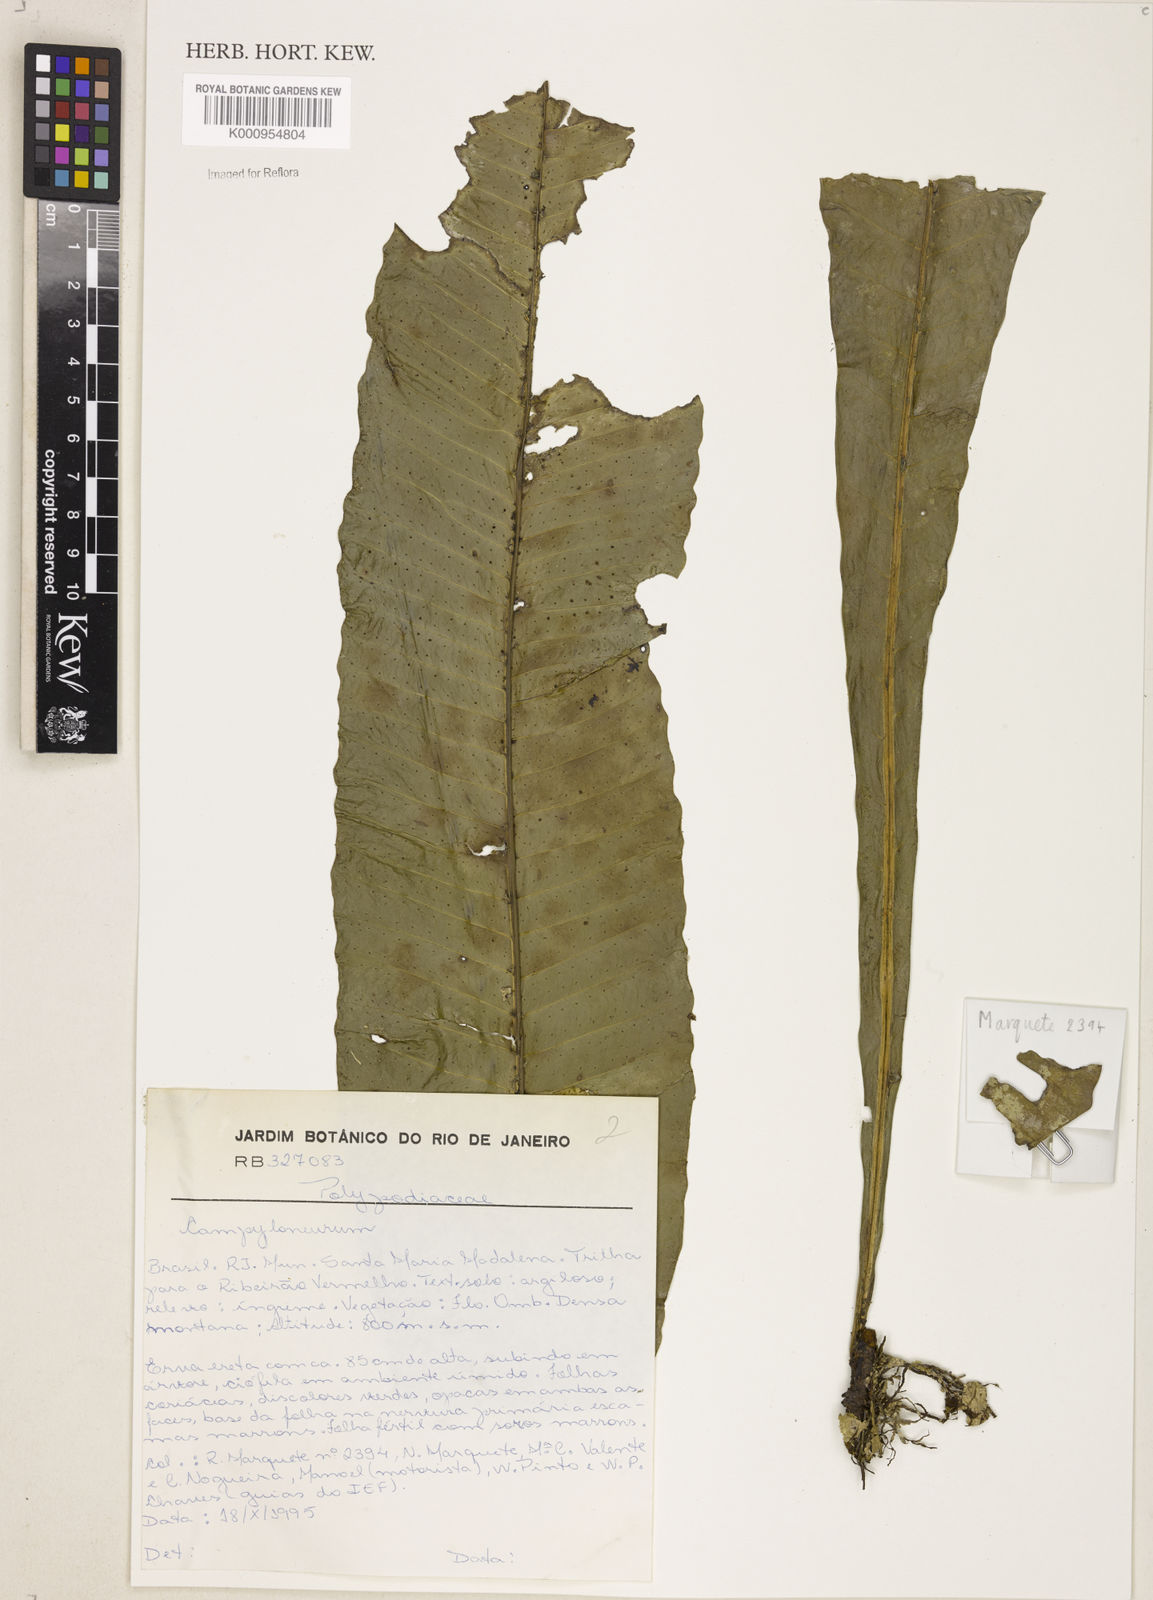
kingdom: Plantae
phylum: Tracheophyta
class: Polypodiopsida
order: Polypodiales
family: Polypodiaceae
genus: Campyloneurum
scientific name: Campyloneurum
